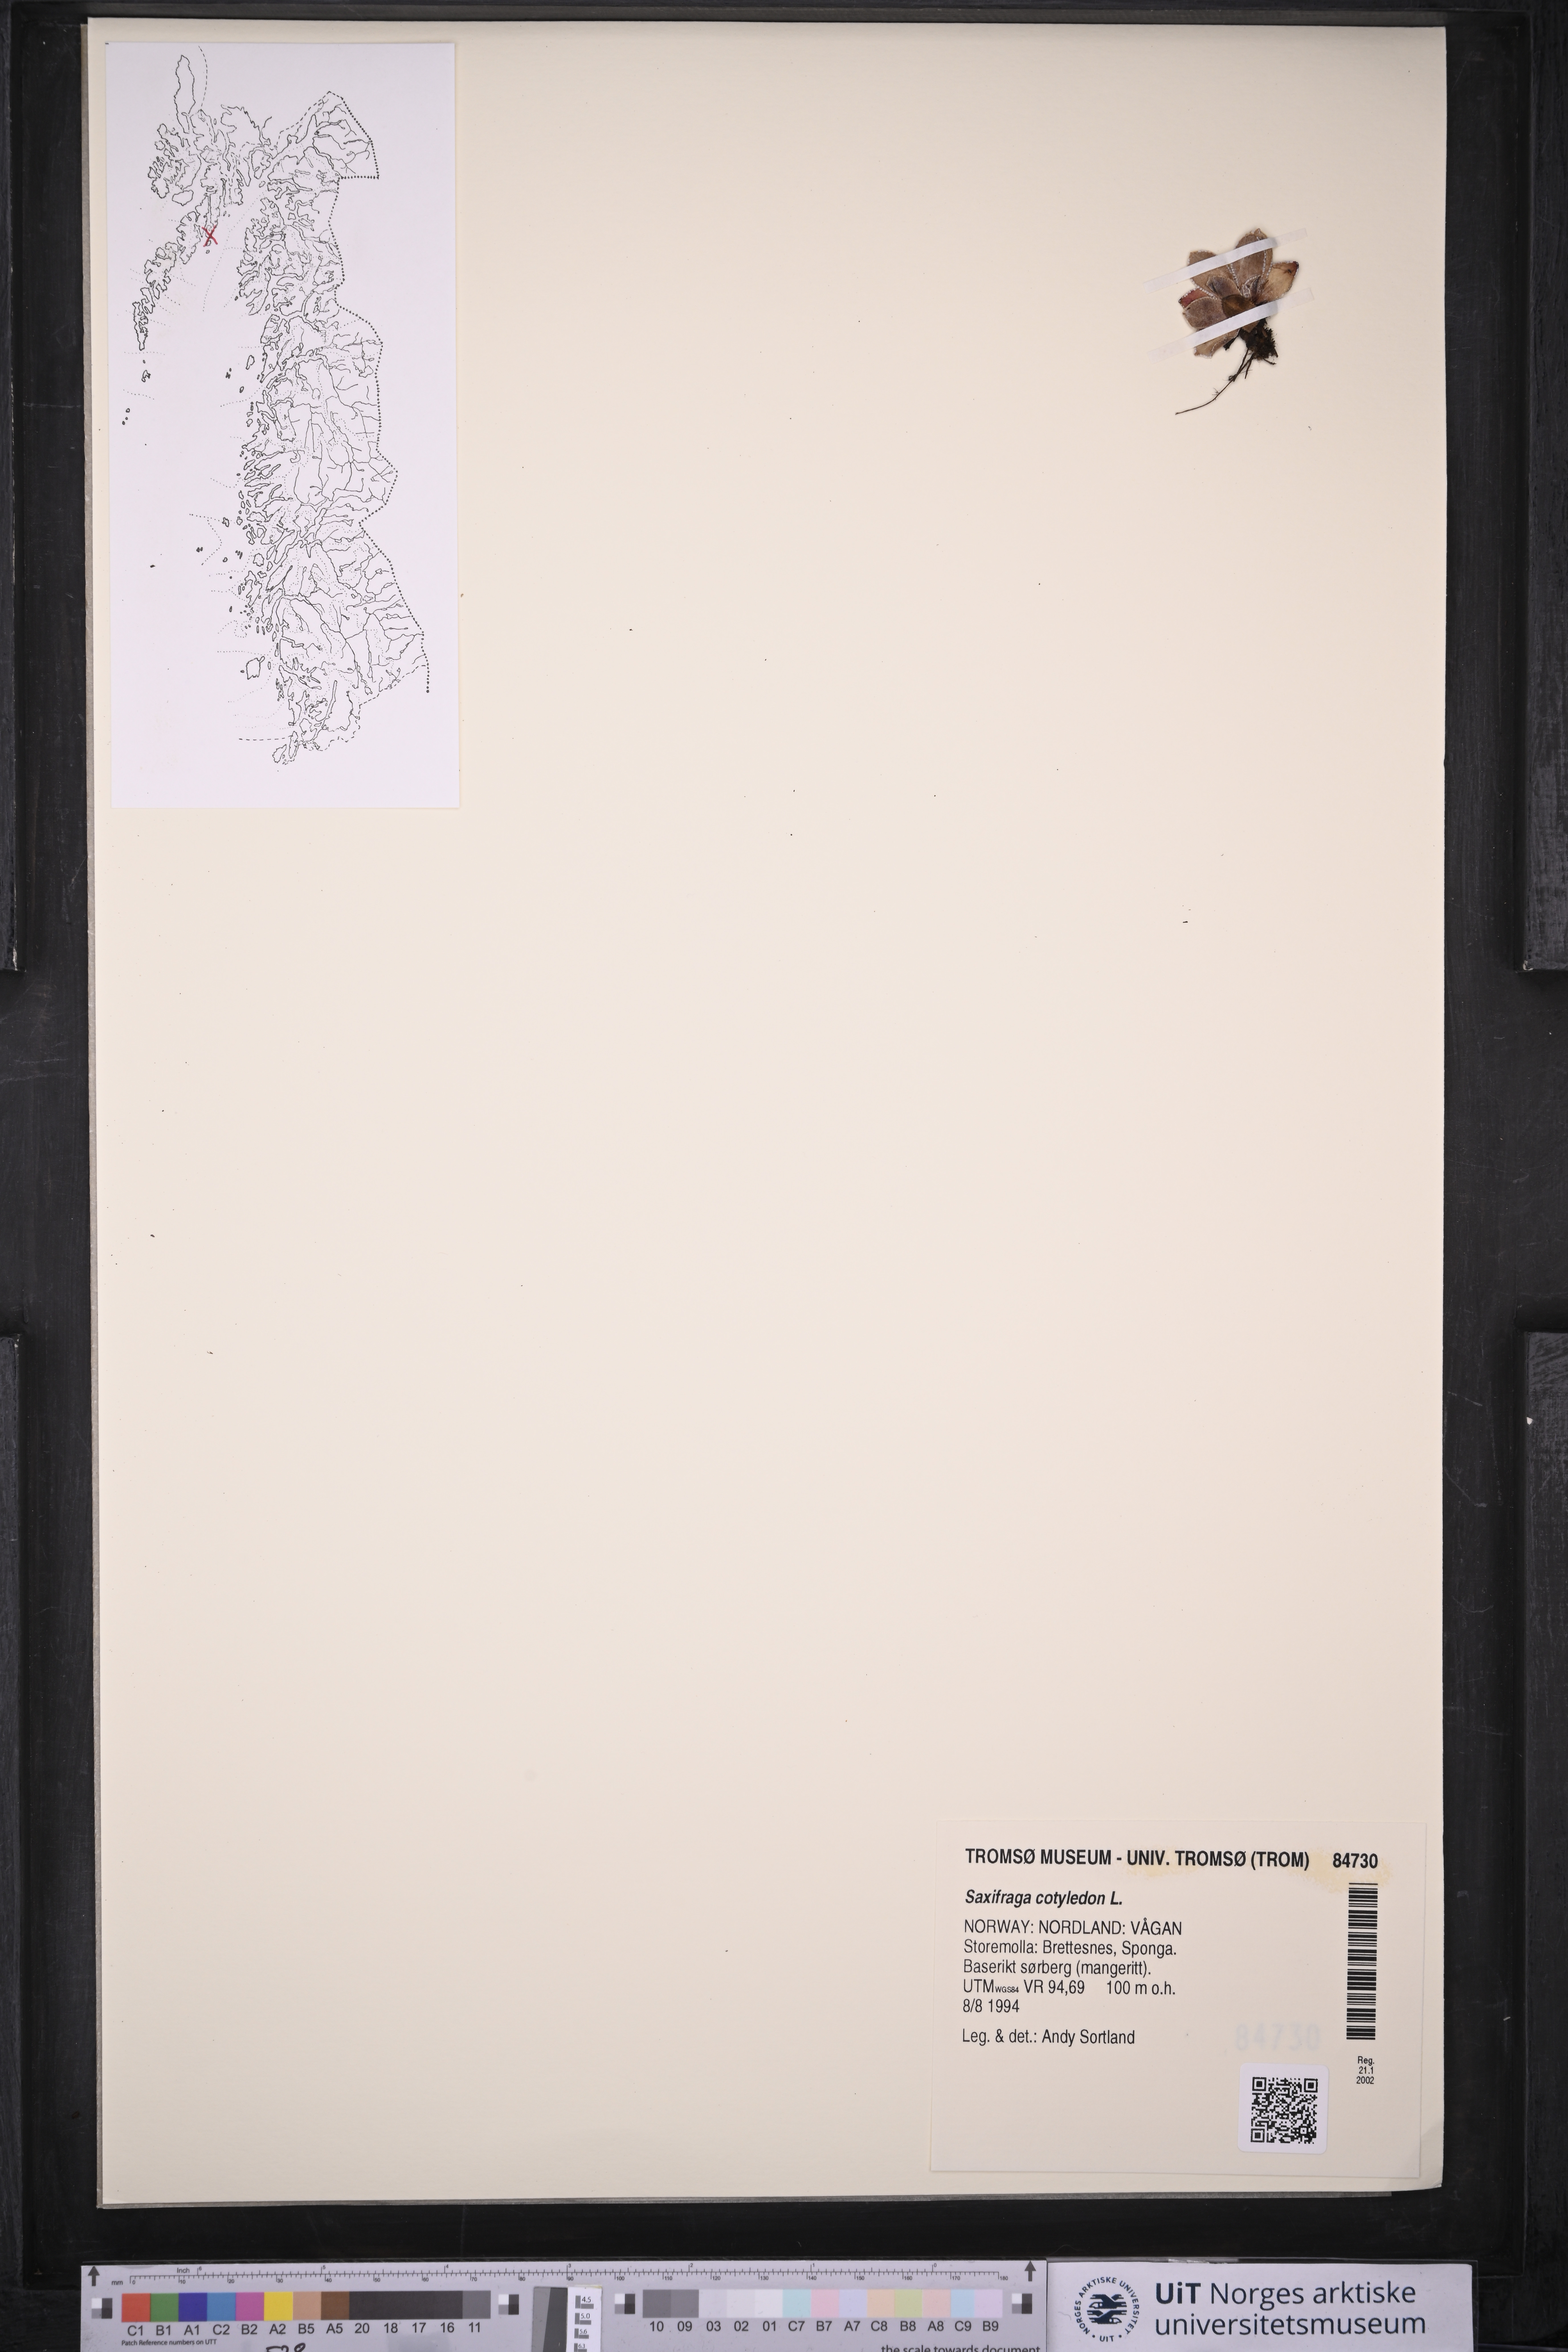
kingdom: Plantae
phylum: Tracheophyta
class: Magnoliopsida
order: Saxifragales
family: Saxifragaceae
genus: Saxifraga
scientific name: Saxifraga cotyledon
